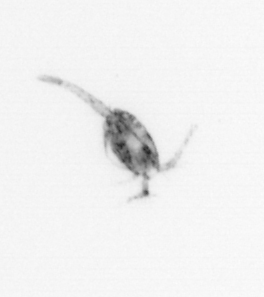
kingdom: Animalia
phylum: Arthropoda
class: Copepoda
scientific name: Copepoda
